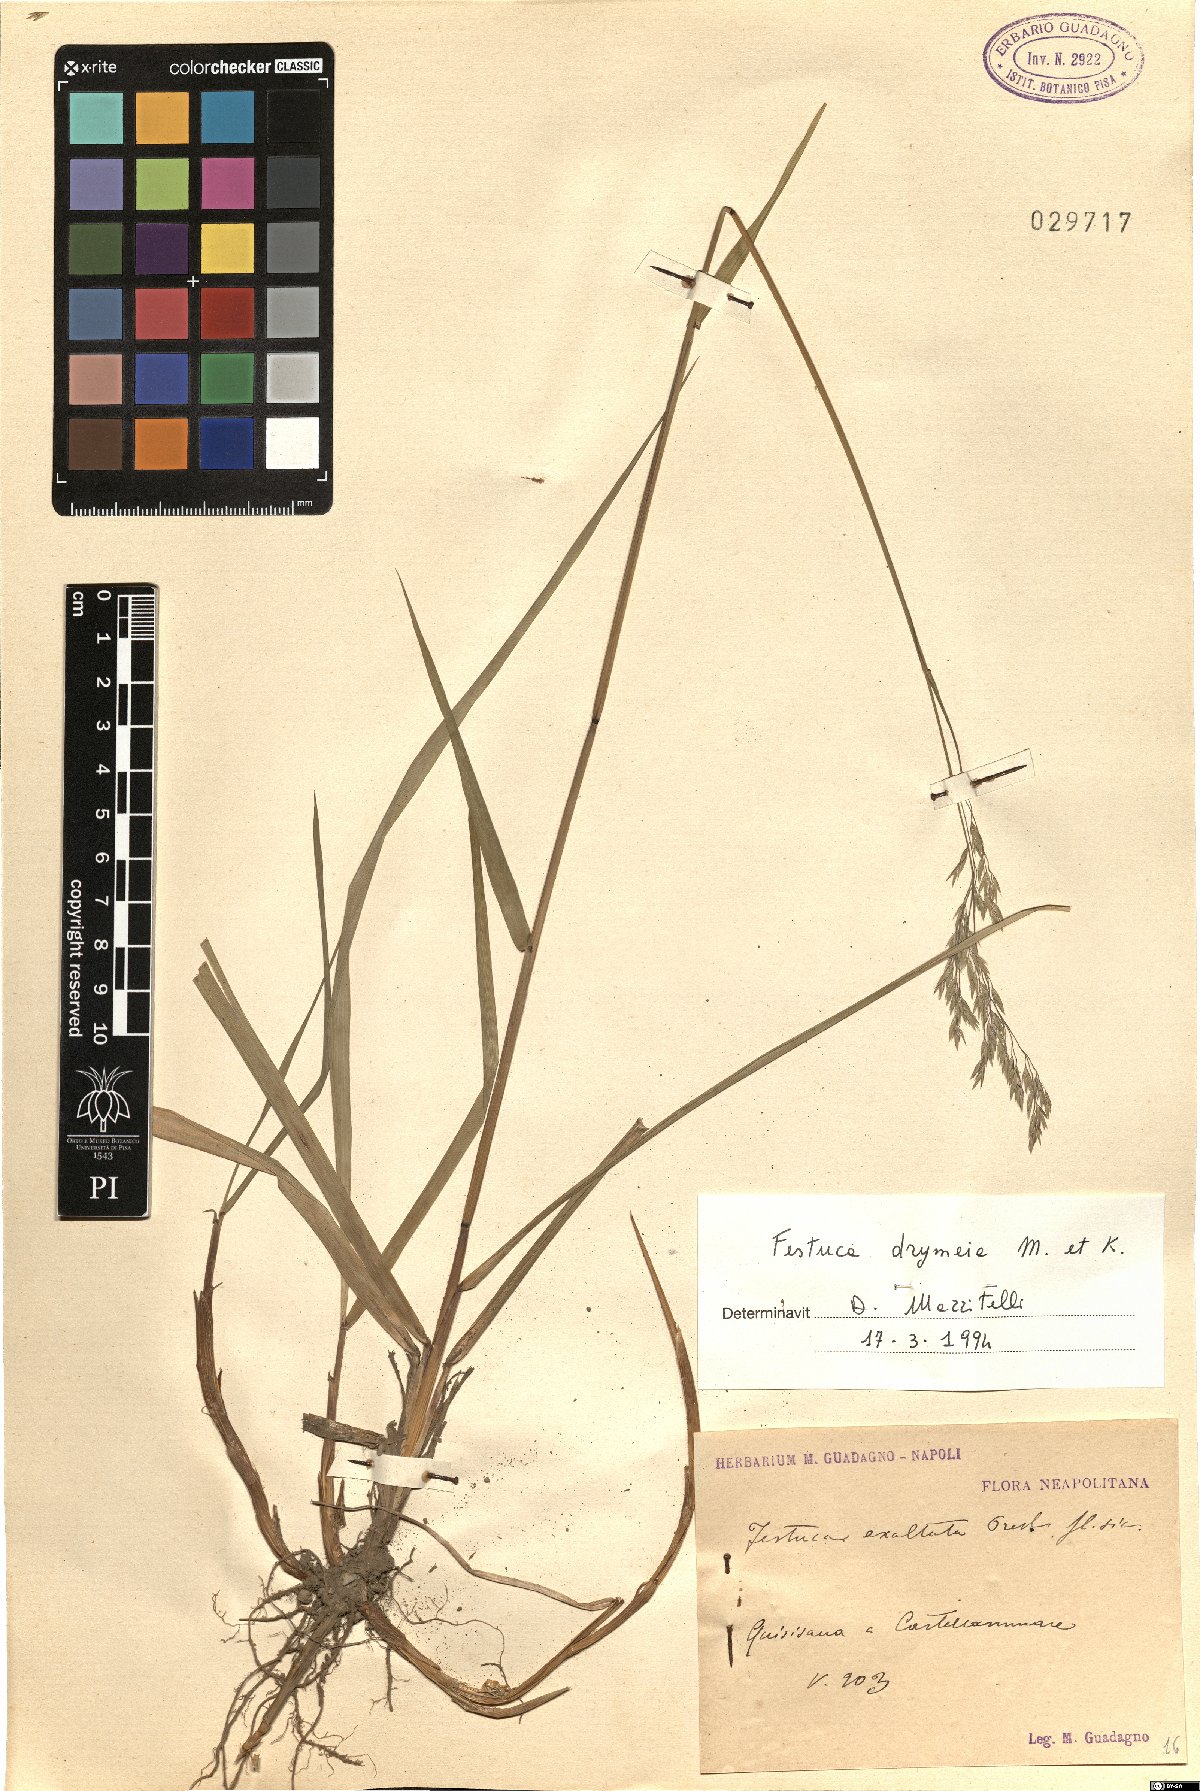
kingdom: Plantae
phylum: Tracheophyta
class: Liliopsida
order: Poales
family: Poaceae
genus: Festuca
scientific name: Festuca drymeja
